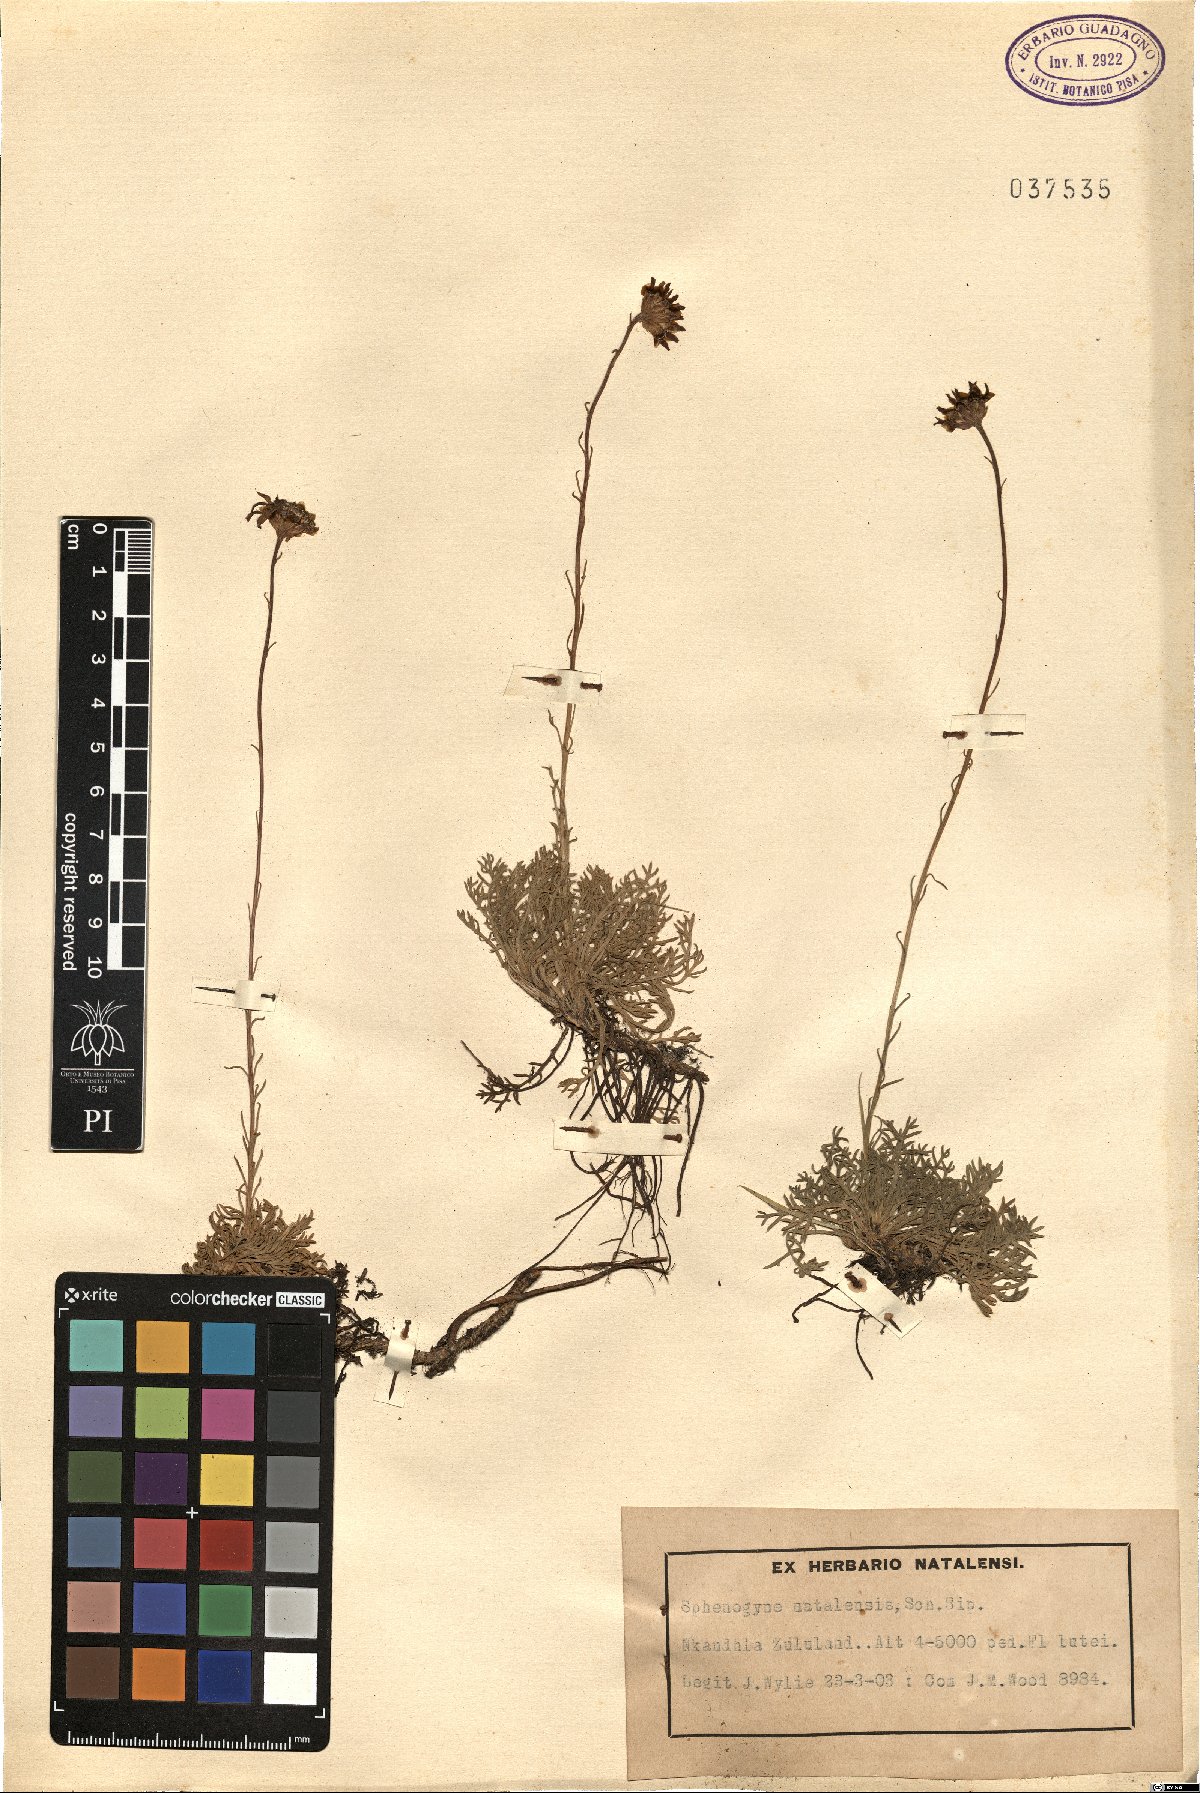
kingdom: Plantae
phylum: Tracheophyta
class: Magnoliopsida
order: Asterales
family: Asteraceae
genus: Ursinia
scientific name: Ursinia tenuiloba
